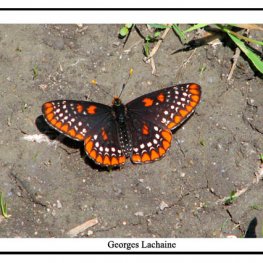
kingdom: Animalia
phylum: Arthropoda
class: Insecta
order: Lepidoptera
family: Nymphalidae
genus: Euphydryas
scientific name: Euphydryas phaeton
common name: Baltimore Checkerspot
